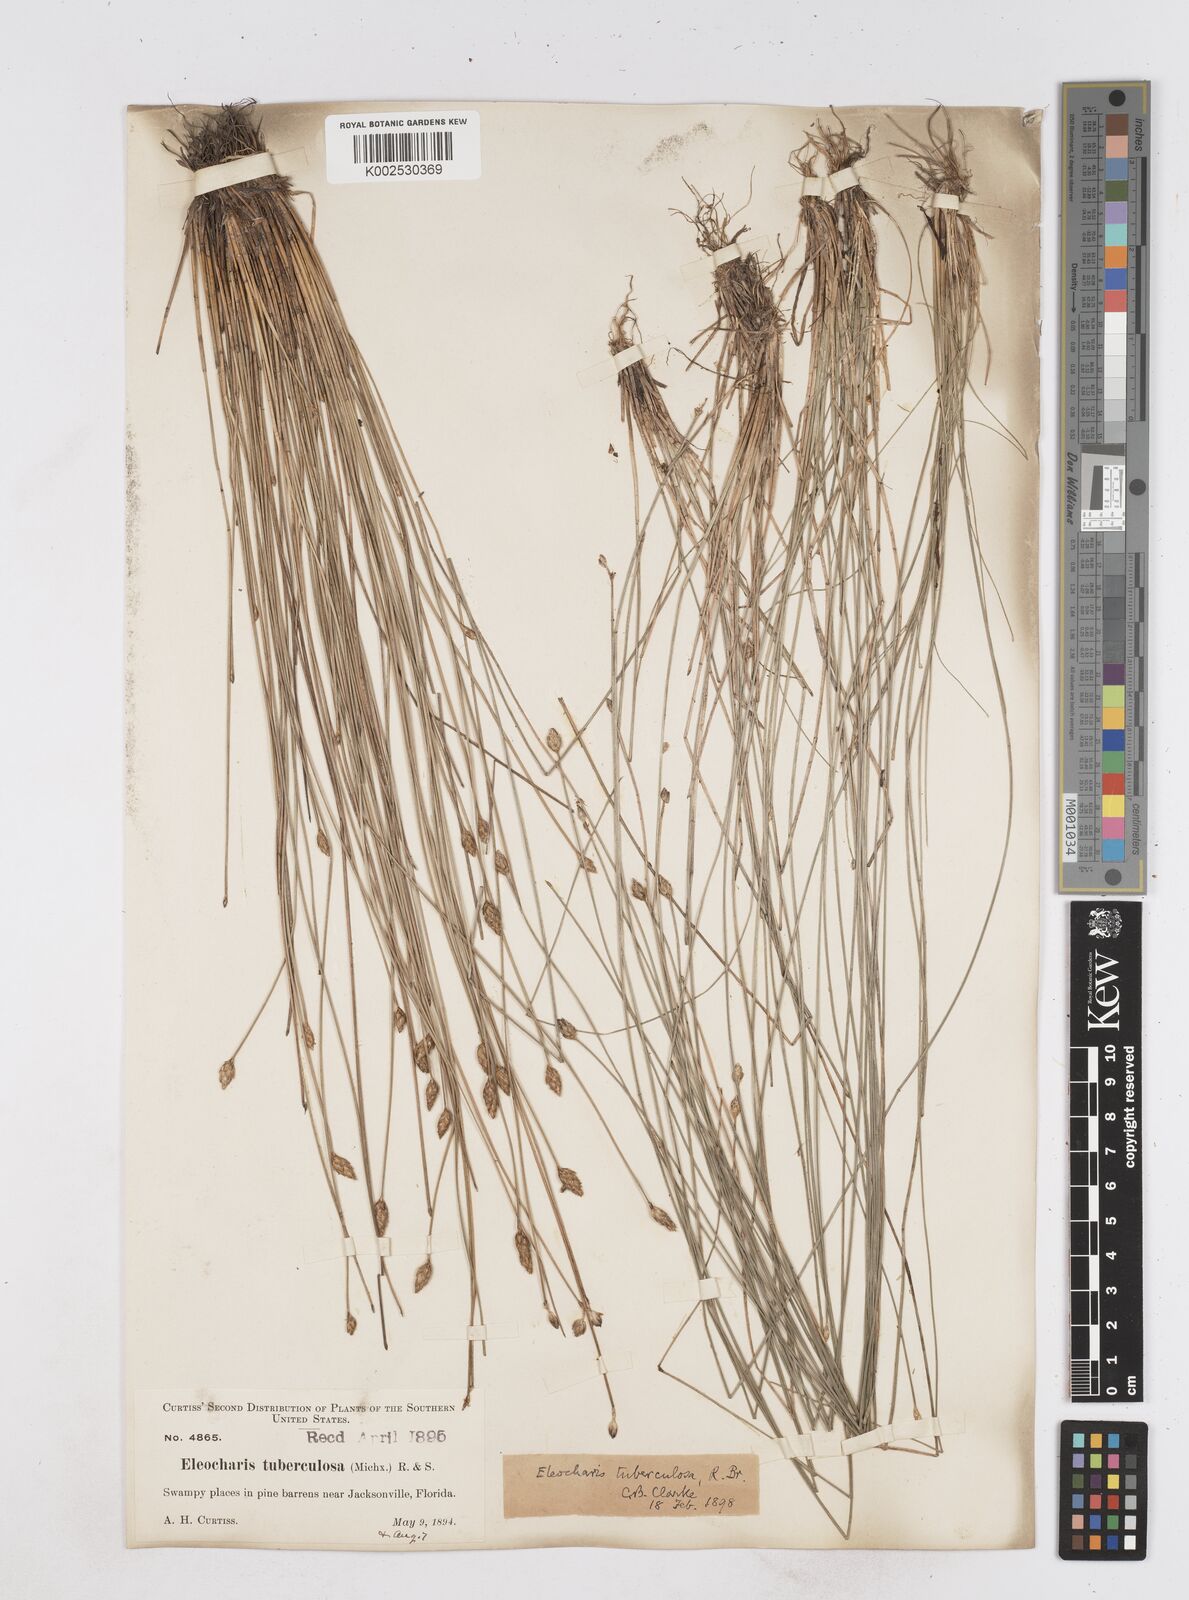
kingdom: Plantae
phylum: Tracheophyta
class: Liliopsida
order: Poales
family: Cyperaceae
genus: Eleocharis
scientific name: Eleocharis tuberculosa
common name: Cone-cup spikerush
